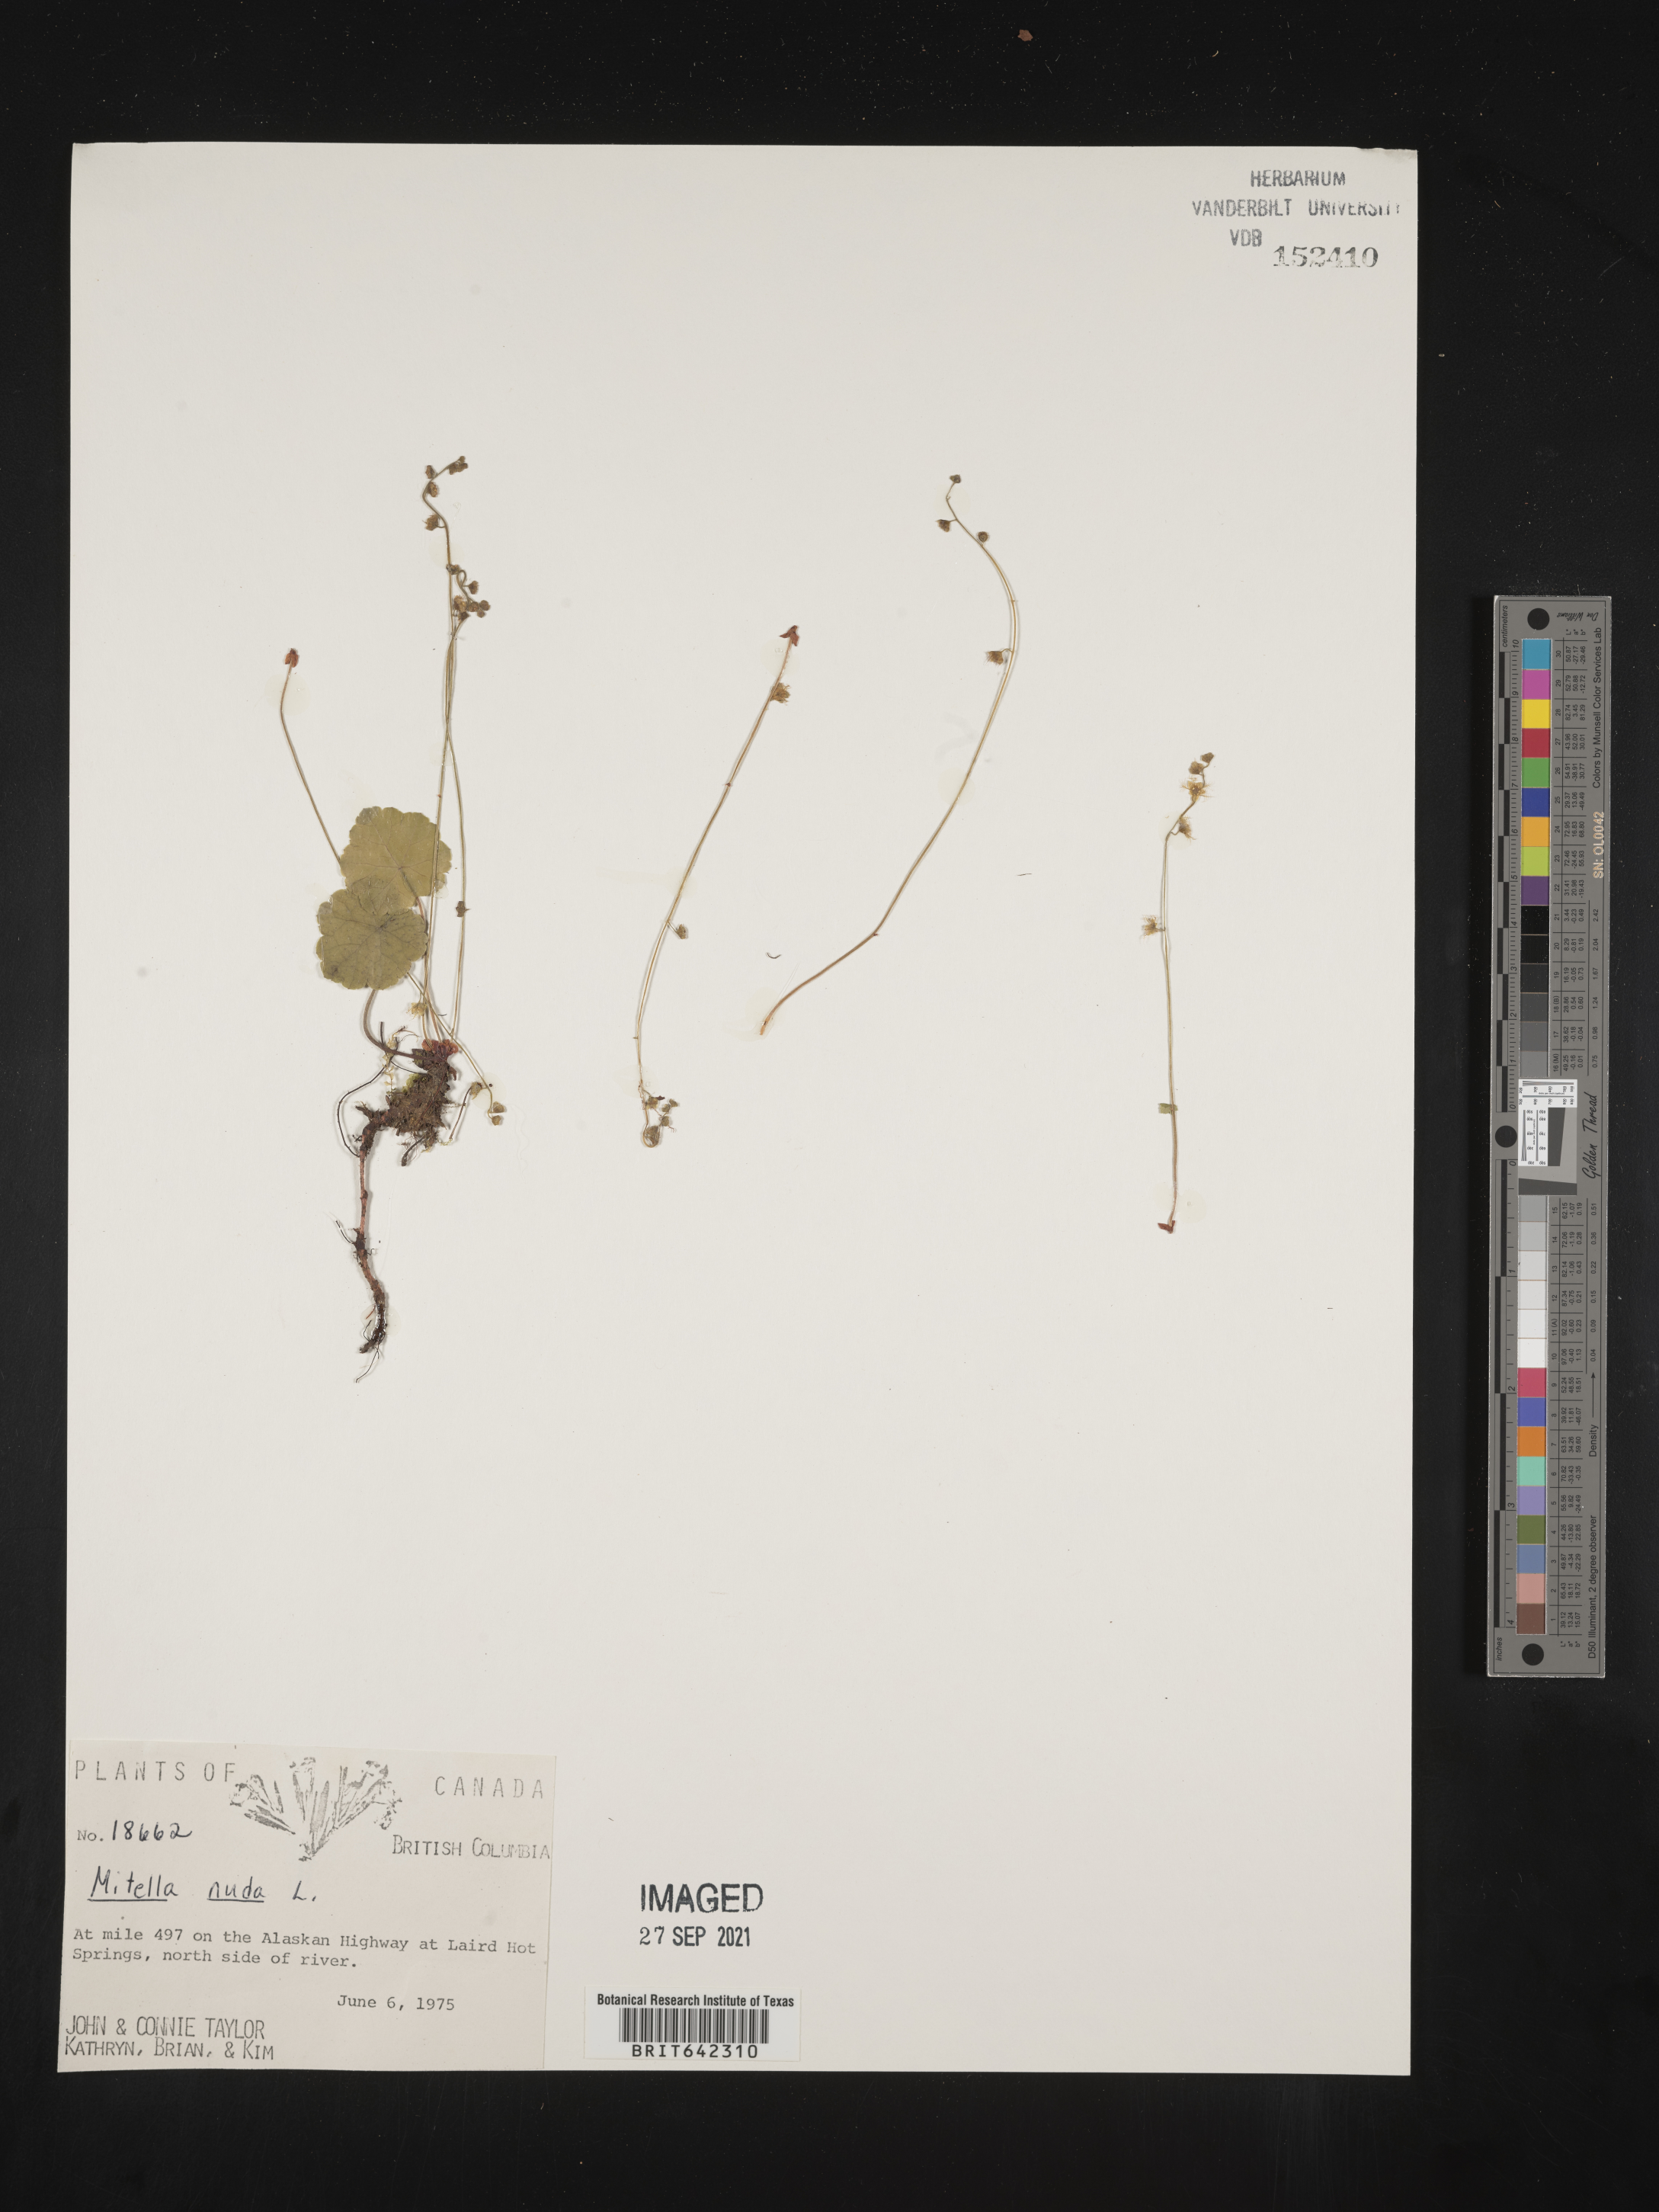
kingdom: Plantae
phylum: Tracheophyta
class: Magnoliopsida
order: Saxifragales
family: Saxifragaceae
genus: Mitella
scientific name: Mitella
